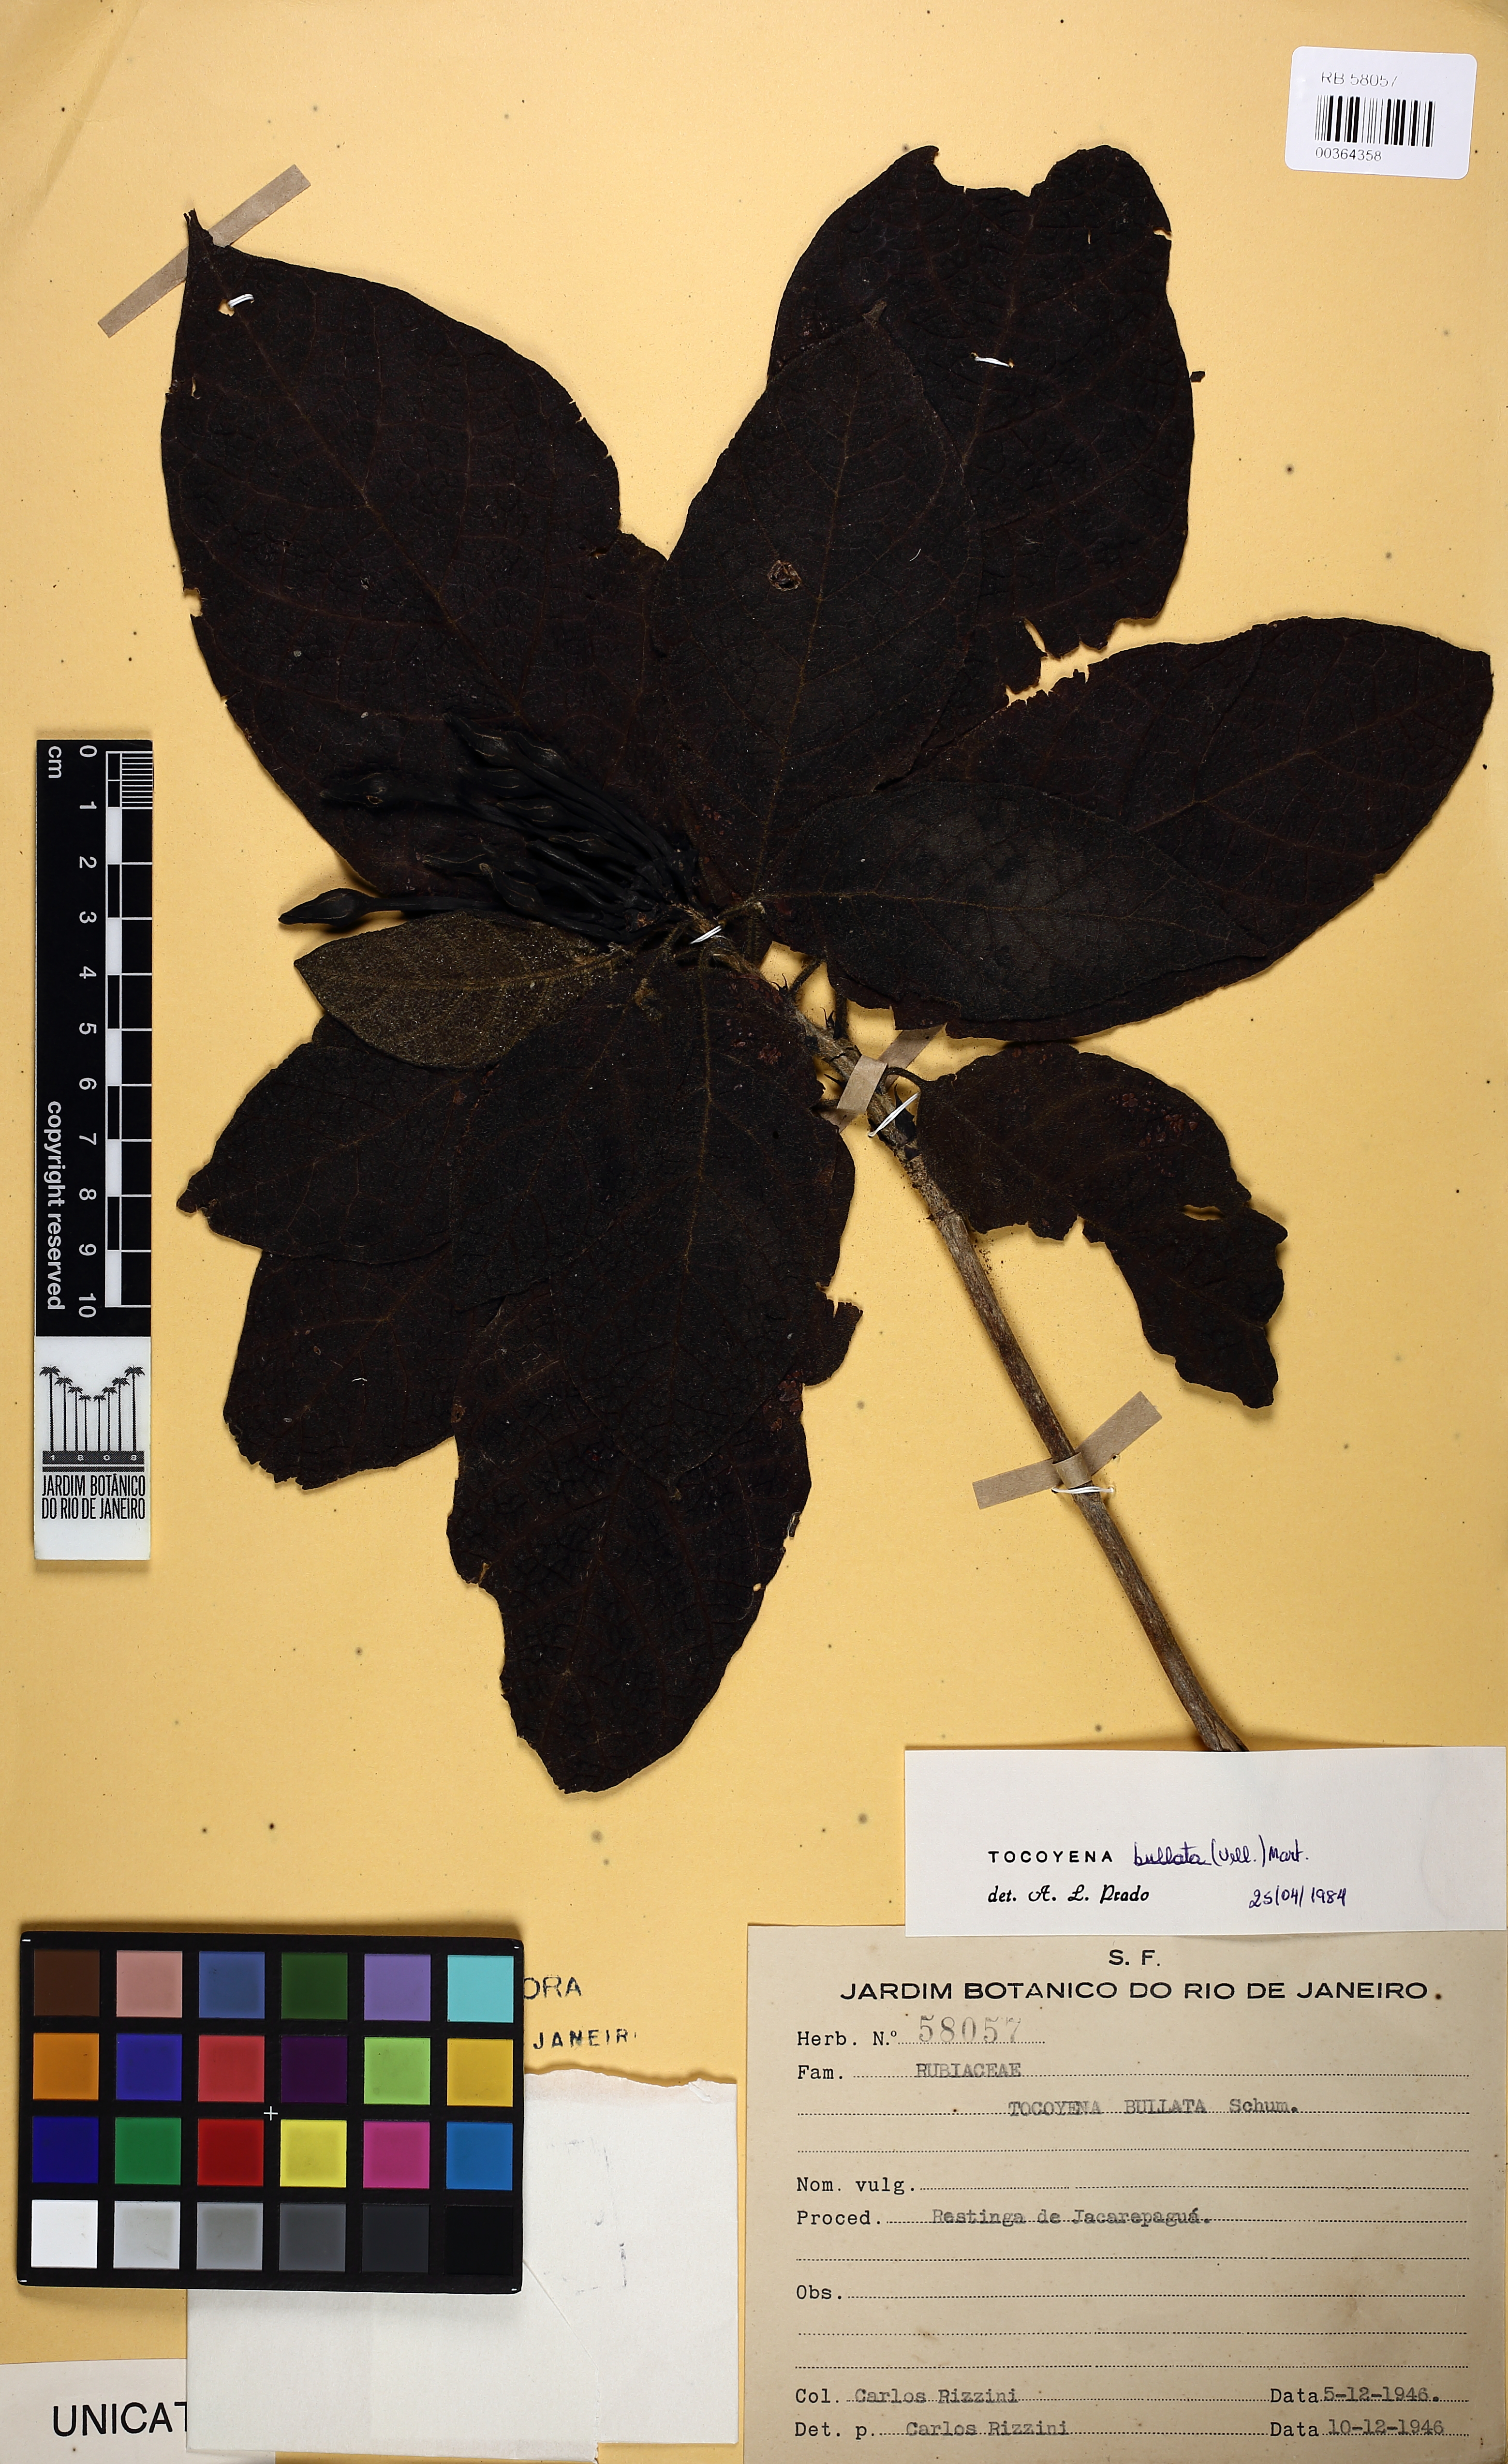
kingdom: Plantae
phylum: Tracheophyta
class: Magnoliopsida
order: Gentianales
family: Rubiaceae
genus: Tocoyena
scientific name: Tocoyena bullata
